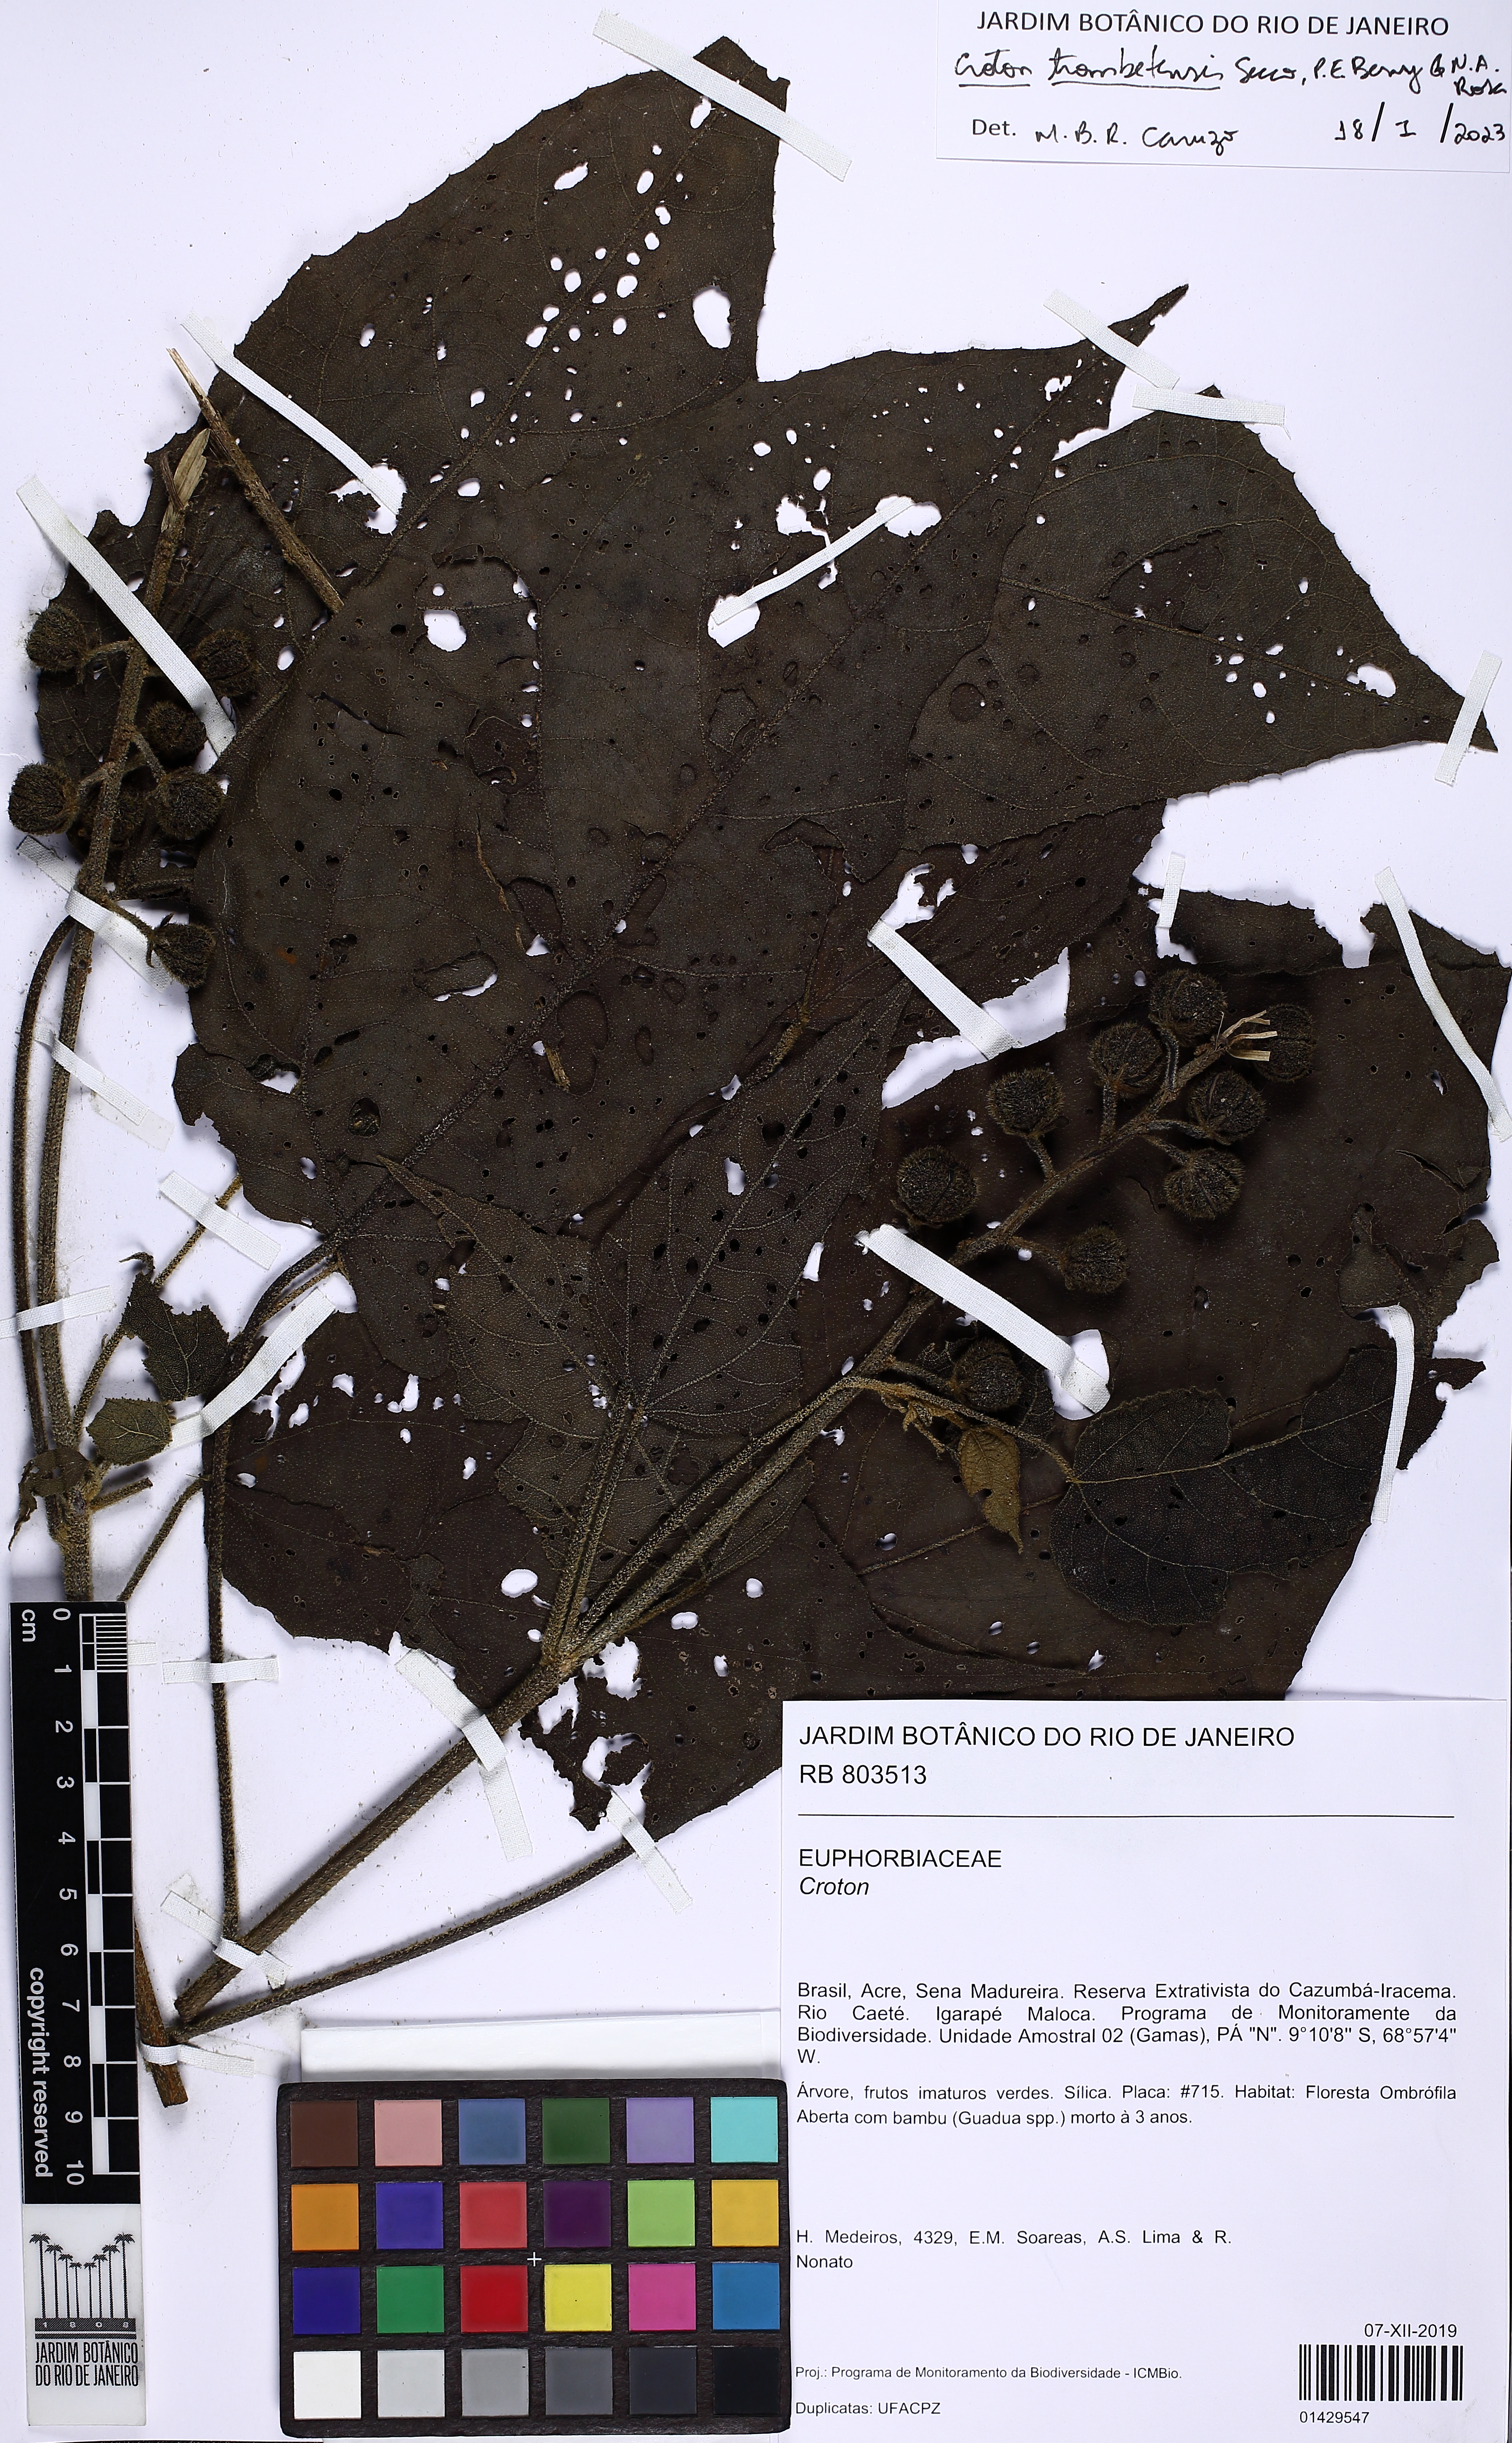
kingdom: Plantae
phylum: Tracheophyta
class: Magnoliopsida
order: Malpighiales
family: Euphorbiaceae
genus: Croton
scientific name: Croton trombetensis
